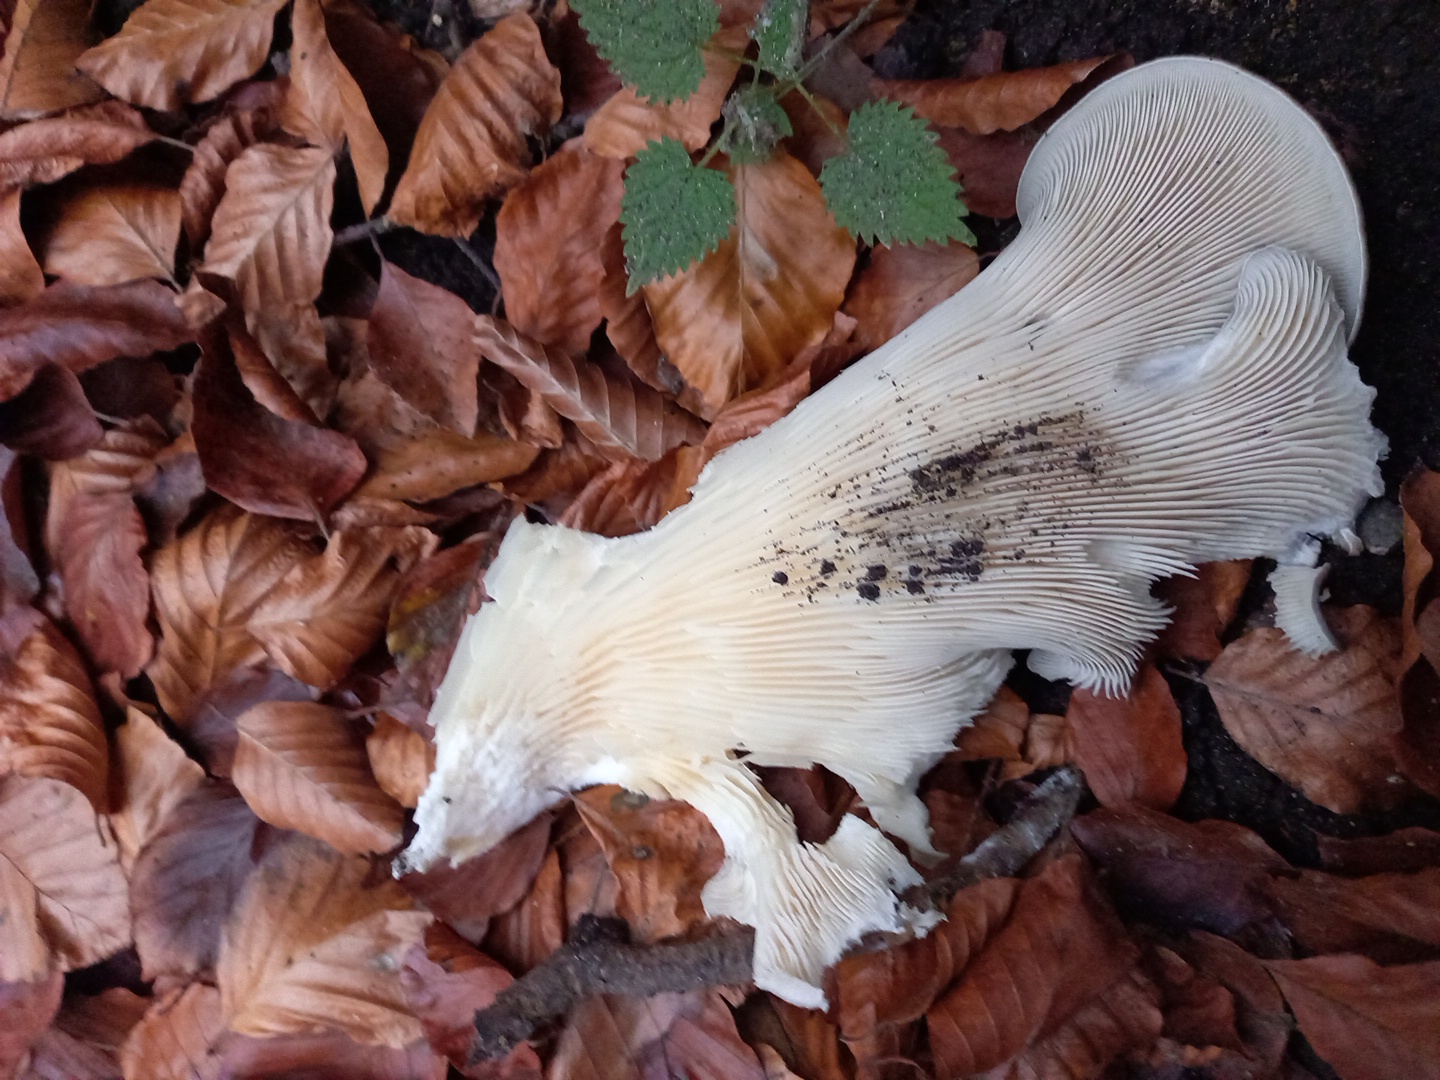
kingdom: Fungi
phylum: Basidiomycota
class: Agaricomycetes
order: Agaricales
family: Pleurotaceae
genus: Pleurotus
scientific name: Pleurotus ostreatus
